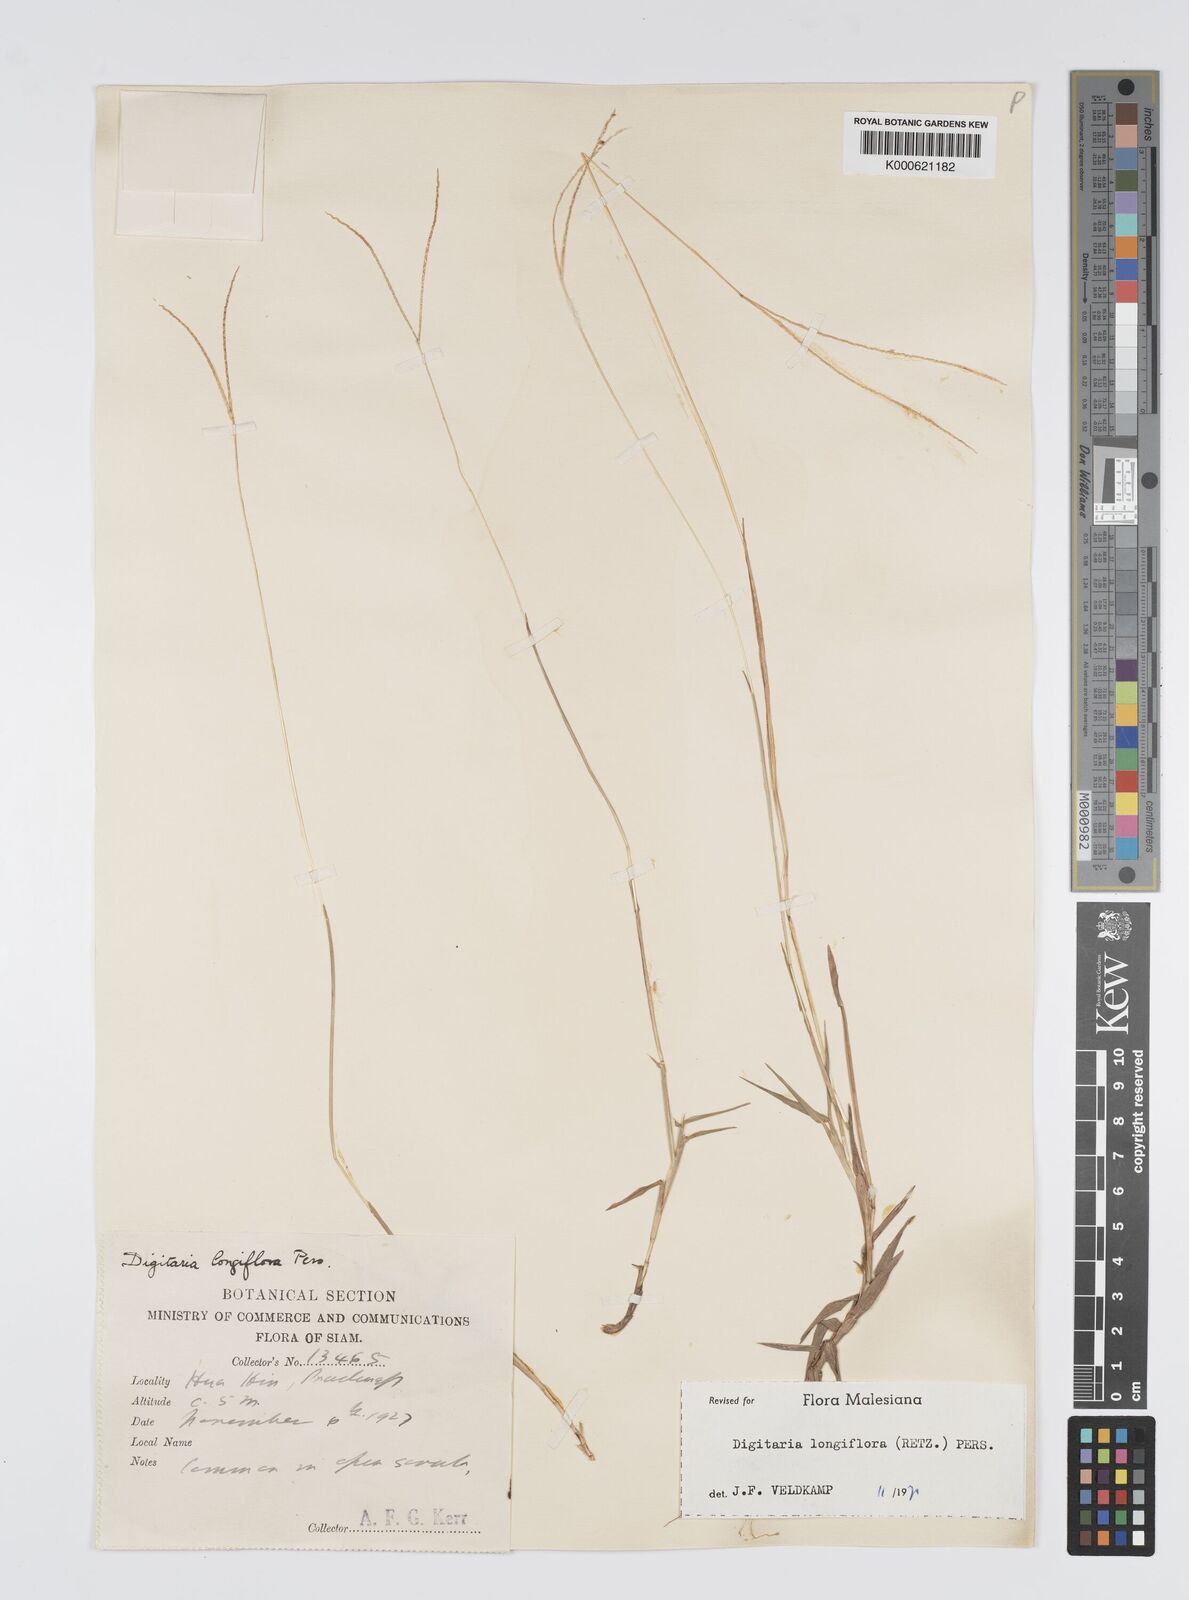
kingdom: Plantae
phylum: Tracheophyta
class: Liliopsida
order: Poales
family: Poaceae
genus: Digitaria
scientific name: Digitaria longiflora
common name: Wire crabgrass
